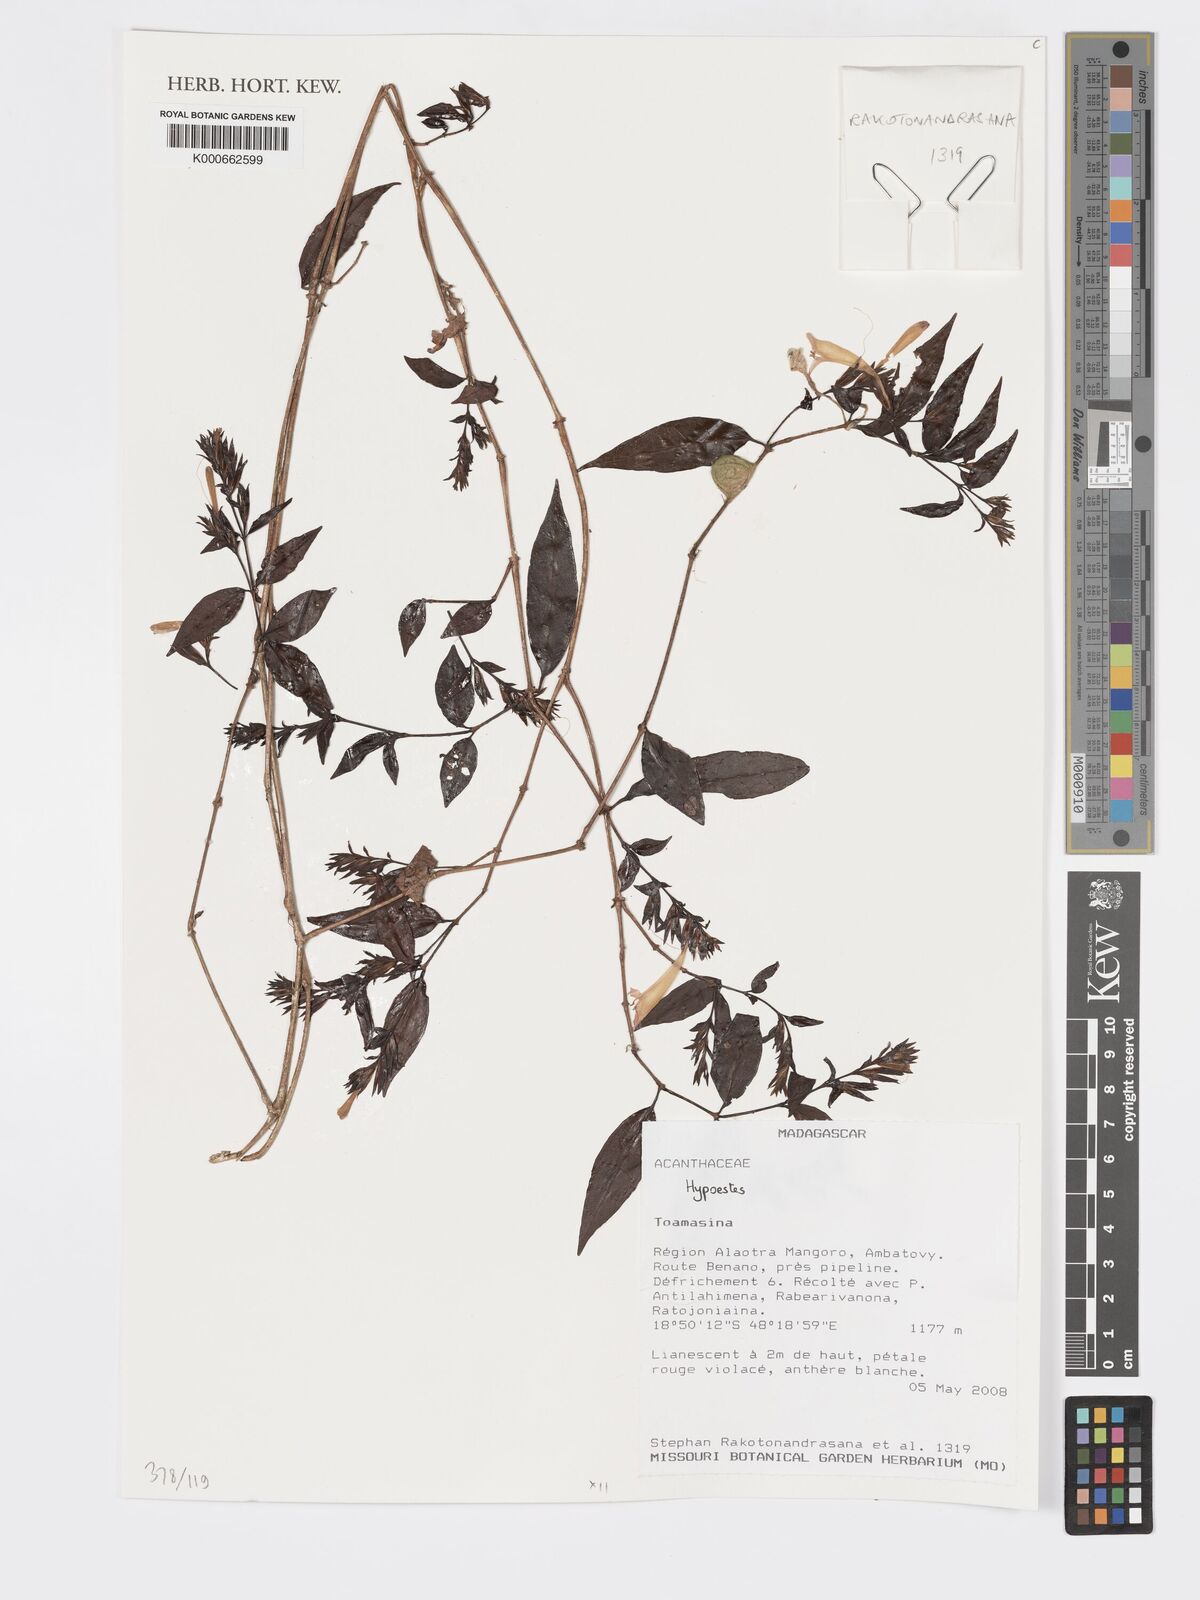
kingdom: Plantae
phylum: Tracheophyta
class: Magnoliopsida
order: Lamiales
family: Acanthaceae
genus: Hypoestes
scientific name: Hypoestes
